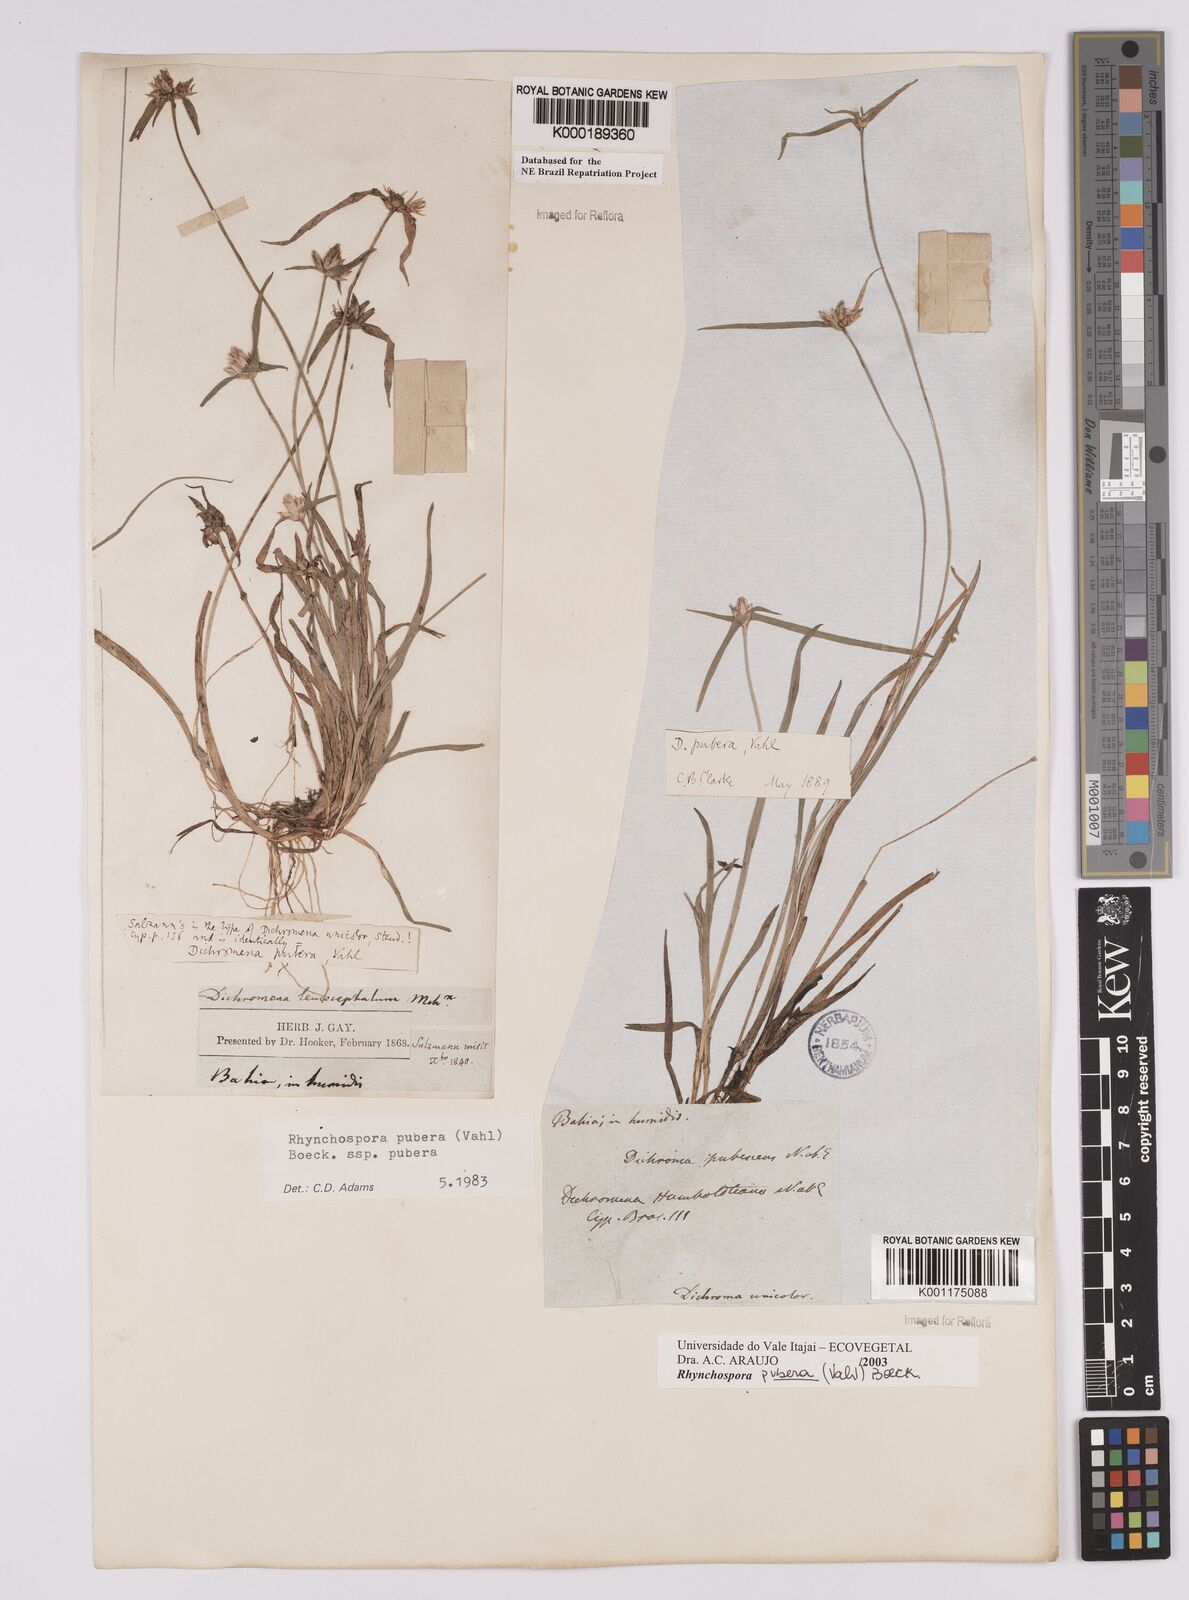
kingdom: Plantae
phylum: Tracheophyta
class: Liliopsida
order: Poales
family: Cyperaceae
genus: Rhynchospora
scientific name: Rhynchospora pubera
